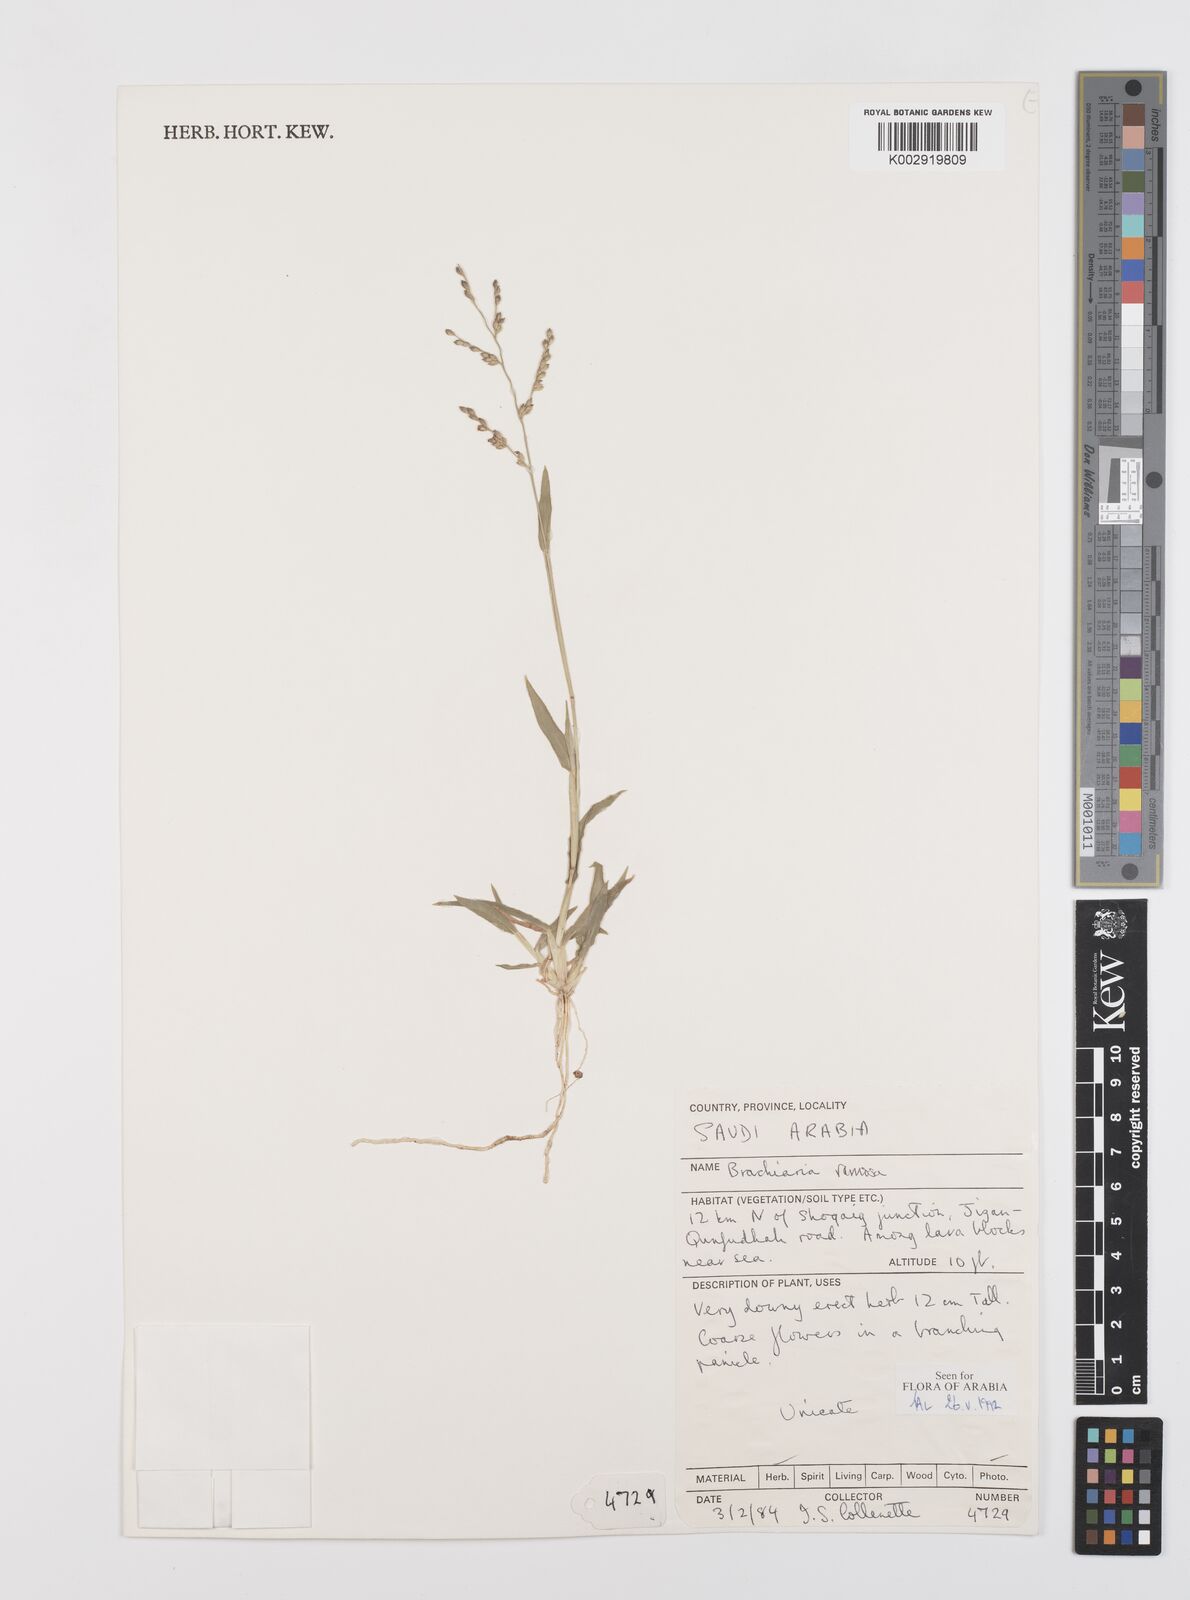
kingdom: Plantae
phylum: Tracheophyta
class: Liliopsida
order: Poales
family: Poaceae
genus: Urochloa
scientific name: Urochloa ramosa
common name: Browntop millet
